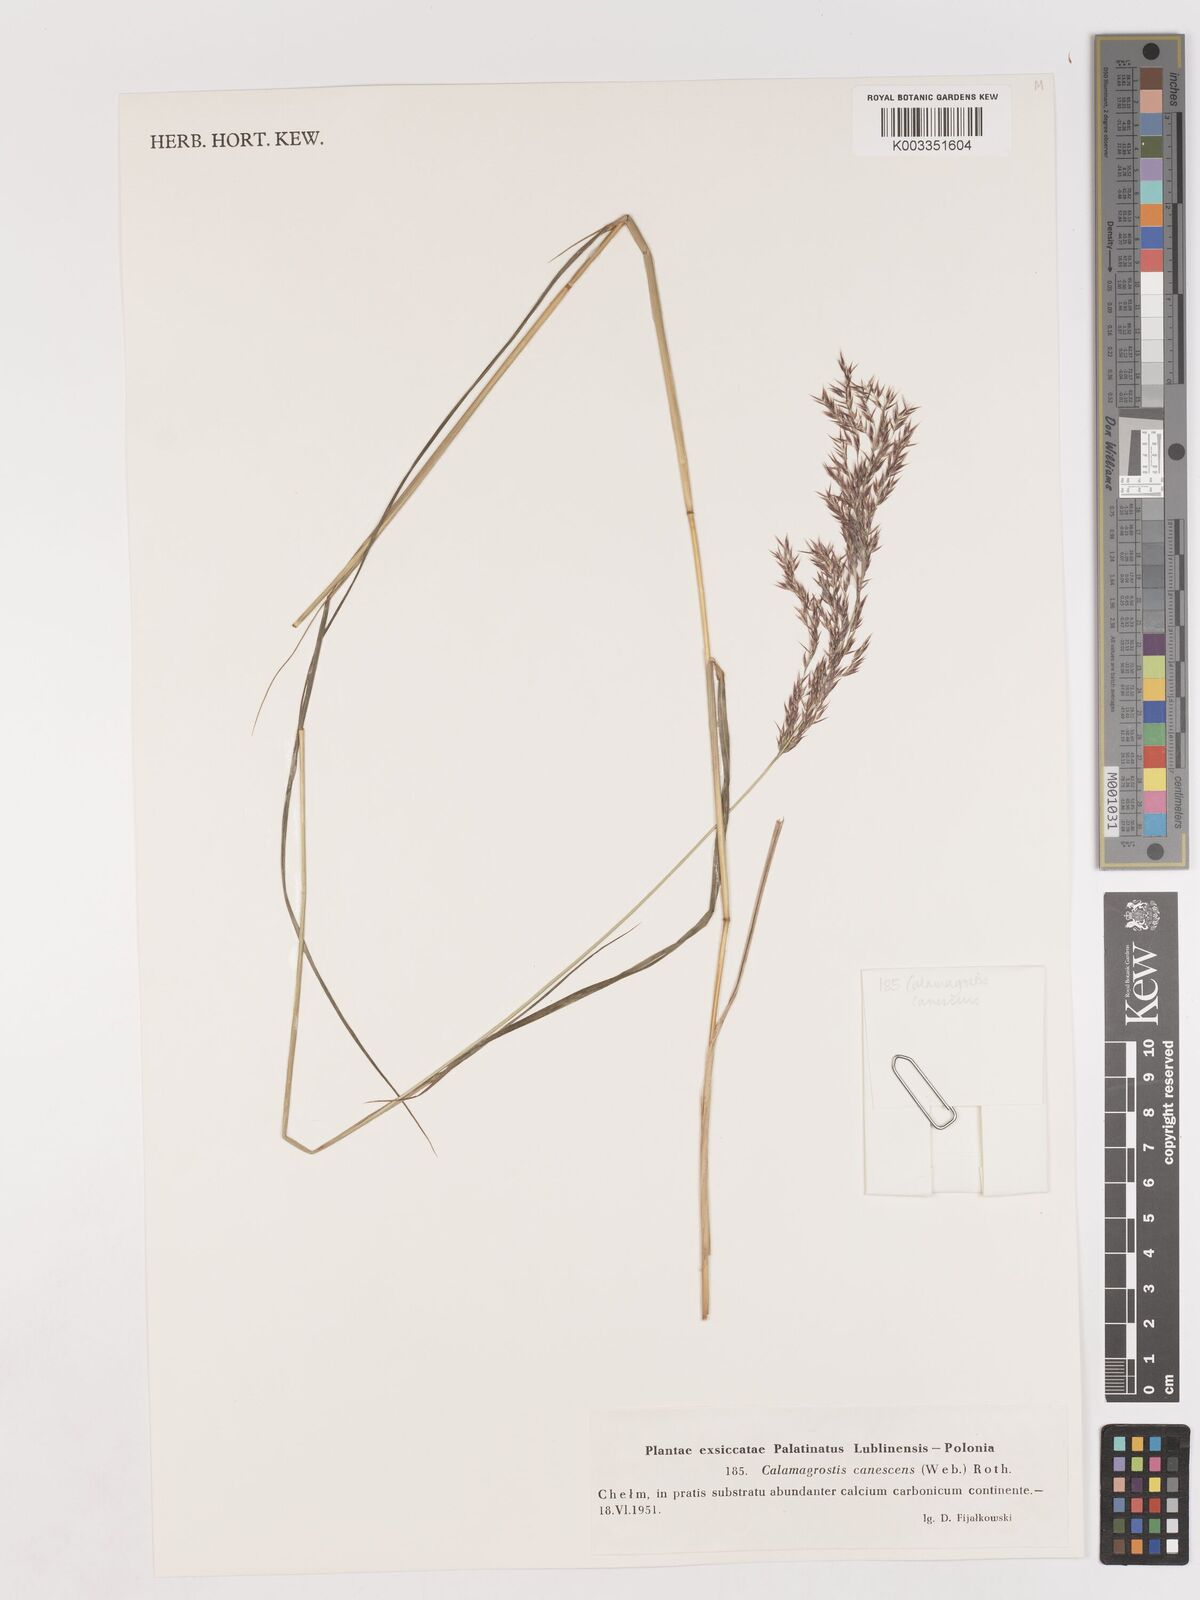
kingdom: Plantae
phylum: Tracheophyta
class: Liliopsida
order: Poales
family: Poaceae
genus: Calamagrostis
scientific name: Calamagrostis canescens
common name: Purple small-reed
